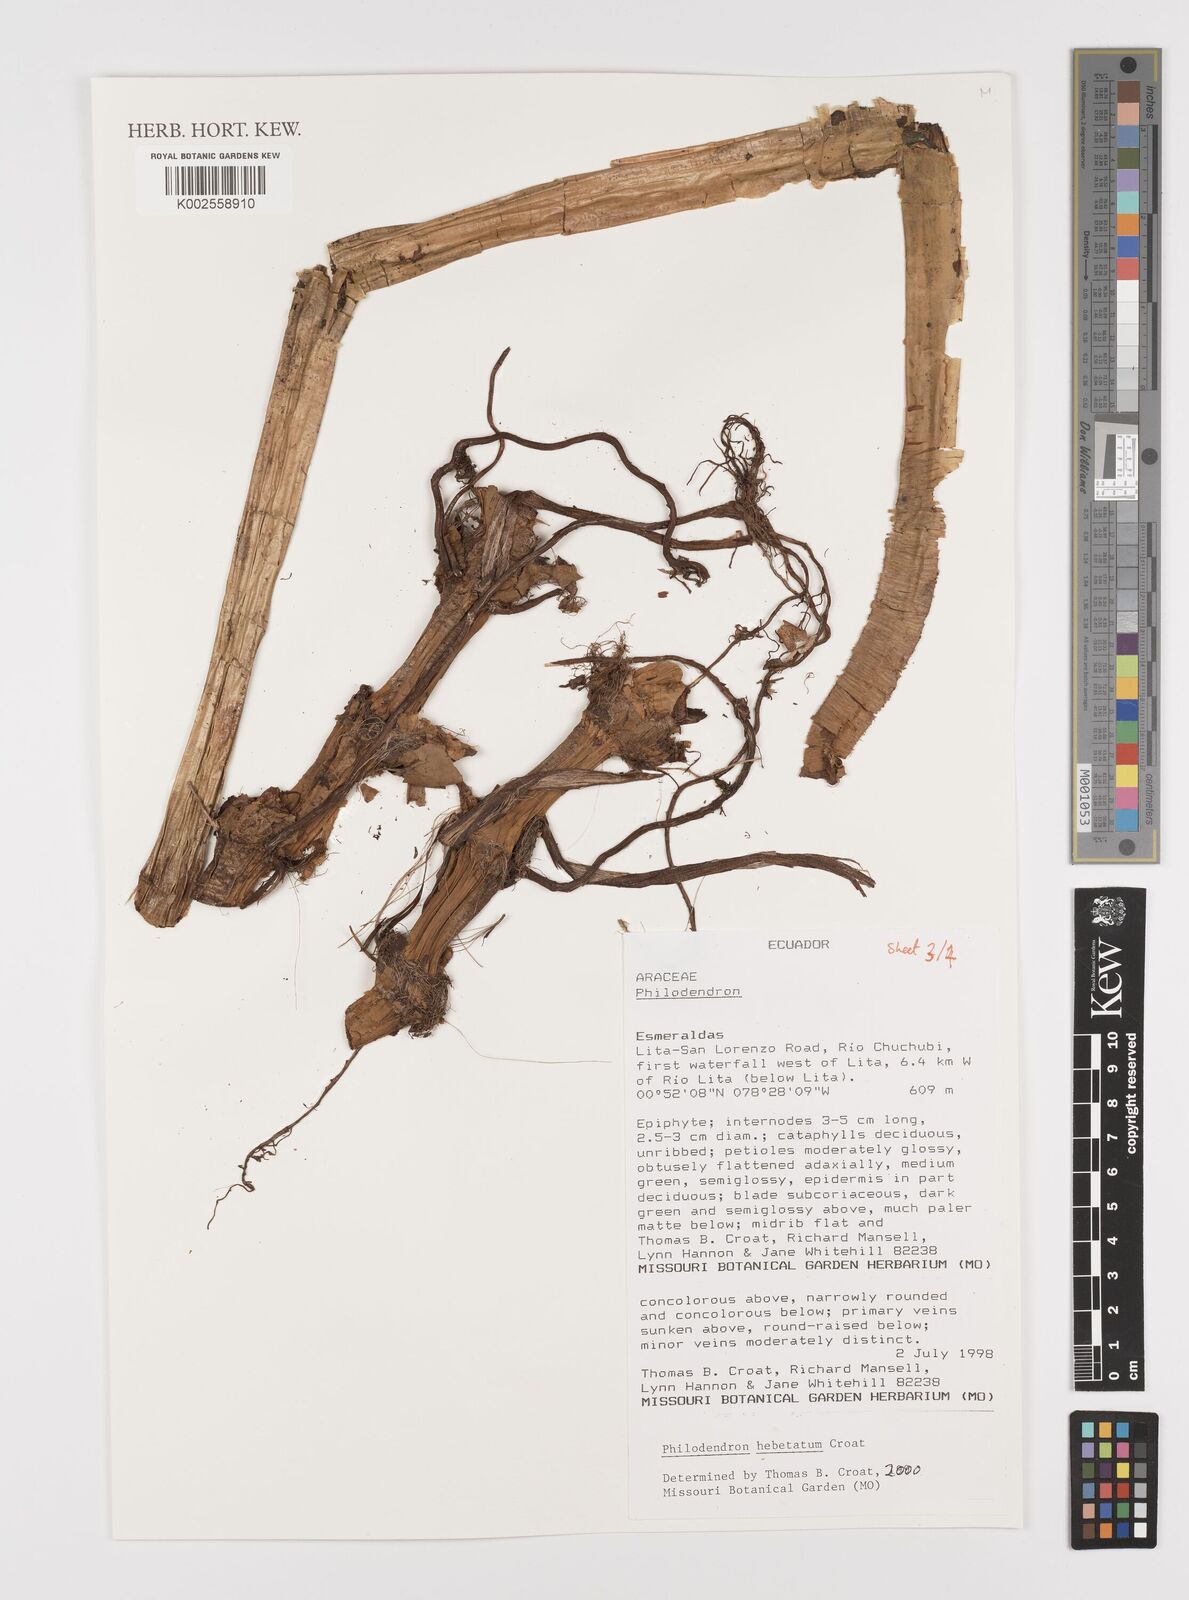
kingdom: Plantae
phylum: Tracheophyta
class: Liliopsida
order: Alismatales
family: Araceae
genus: Philodendron
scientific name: Philodendron hebetatum
